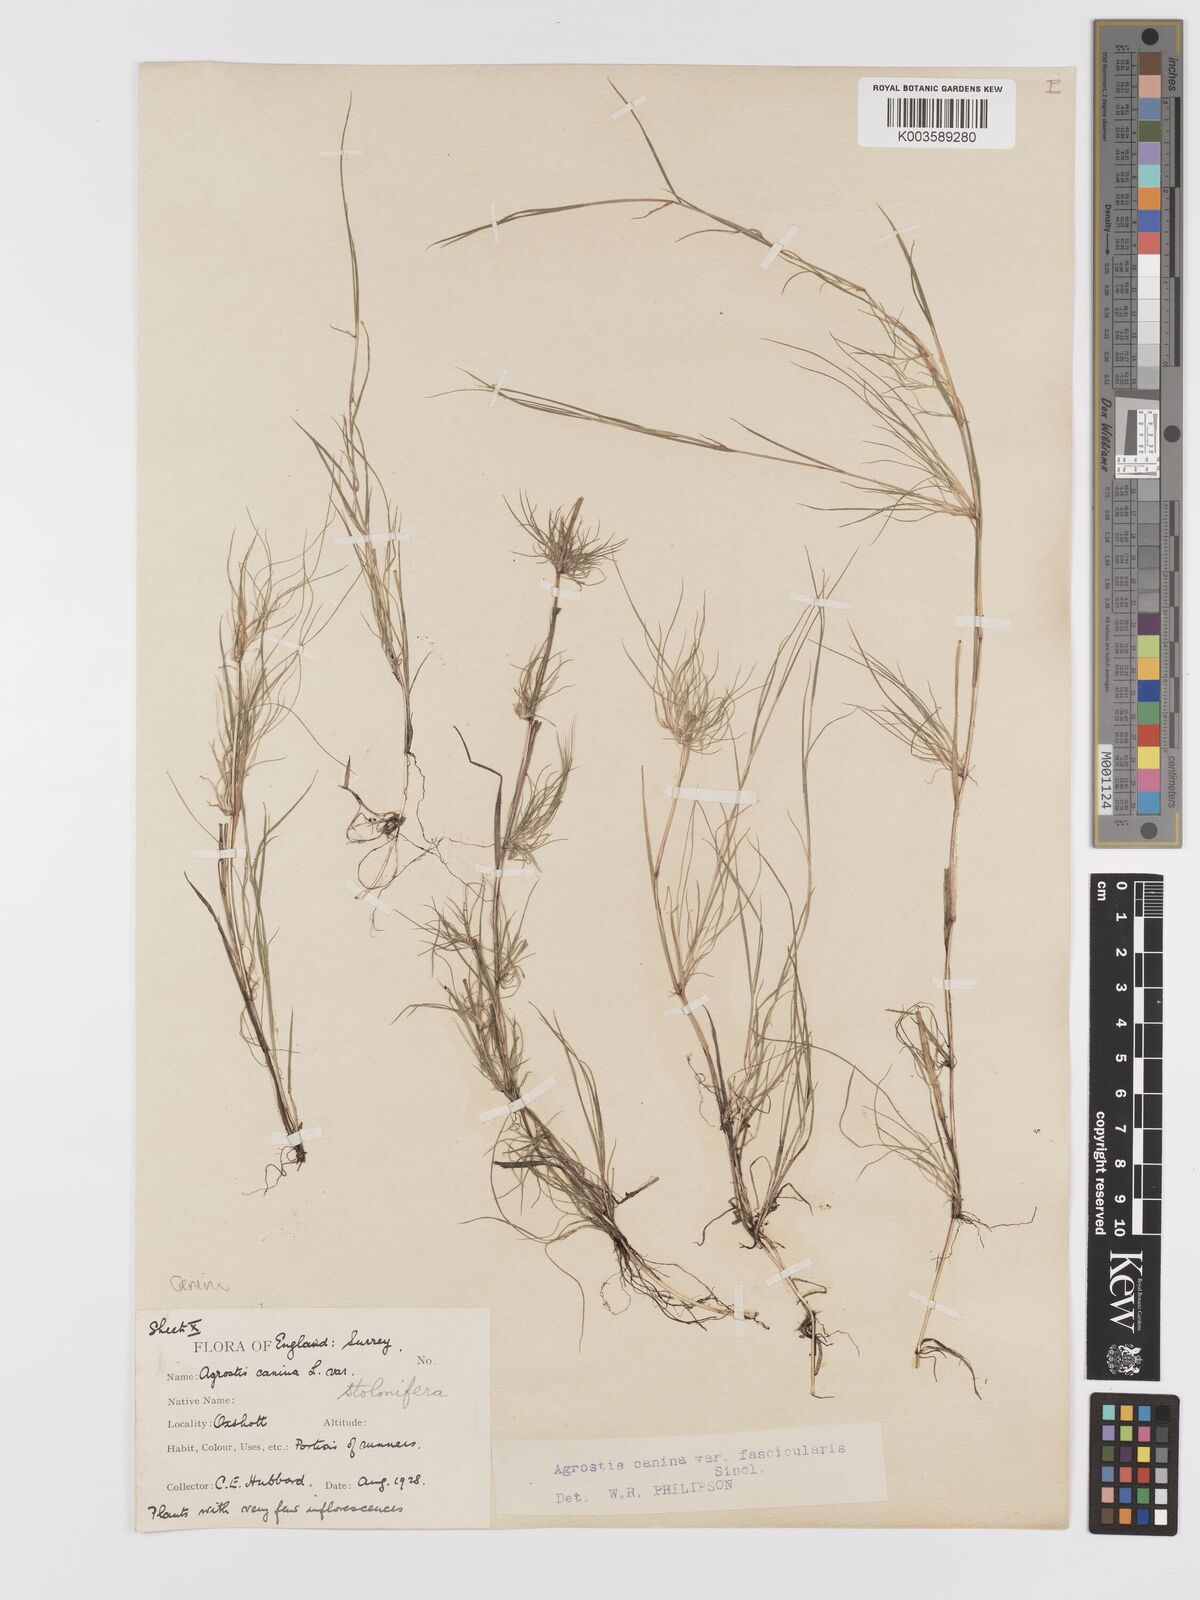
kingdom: Plantae
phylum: Tracheophyta
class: Liliopsida
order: Poales
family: Poaceae
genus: Agrostis
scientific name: Agrostis canina
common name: Velvet bent
